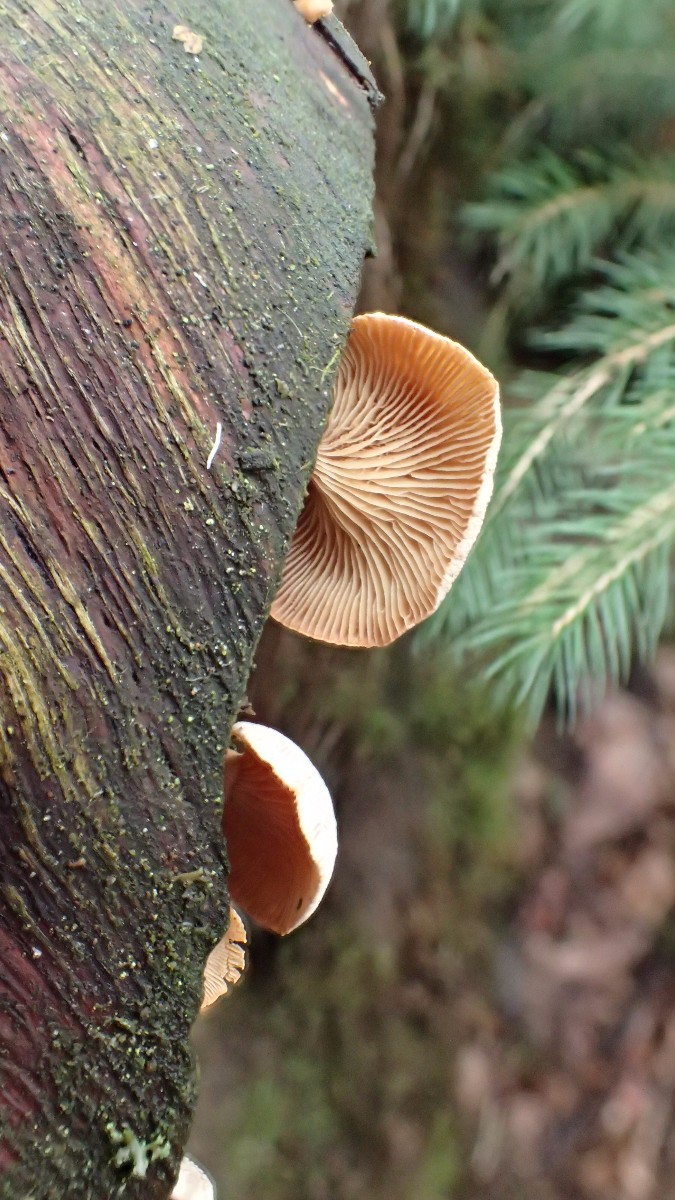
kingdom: Fungi
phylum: Basidiomycota
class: Agaricomycetes
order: Agaricales
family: Mycenaceae
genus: Panellus
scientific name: Panellus stipticus
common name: kliddet epaulethat
